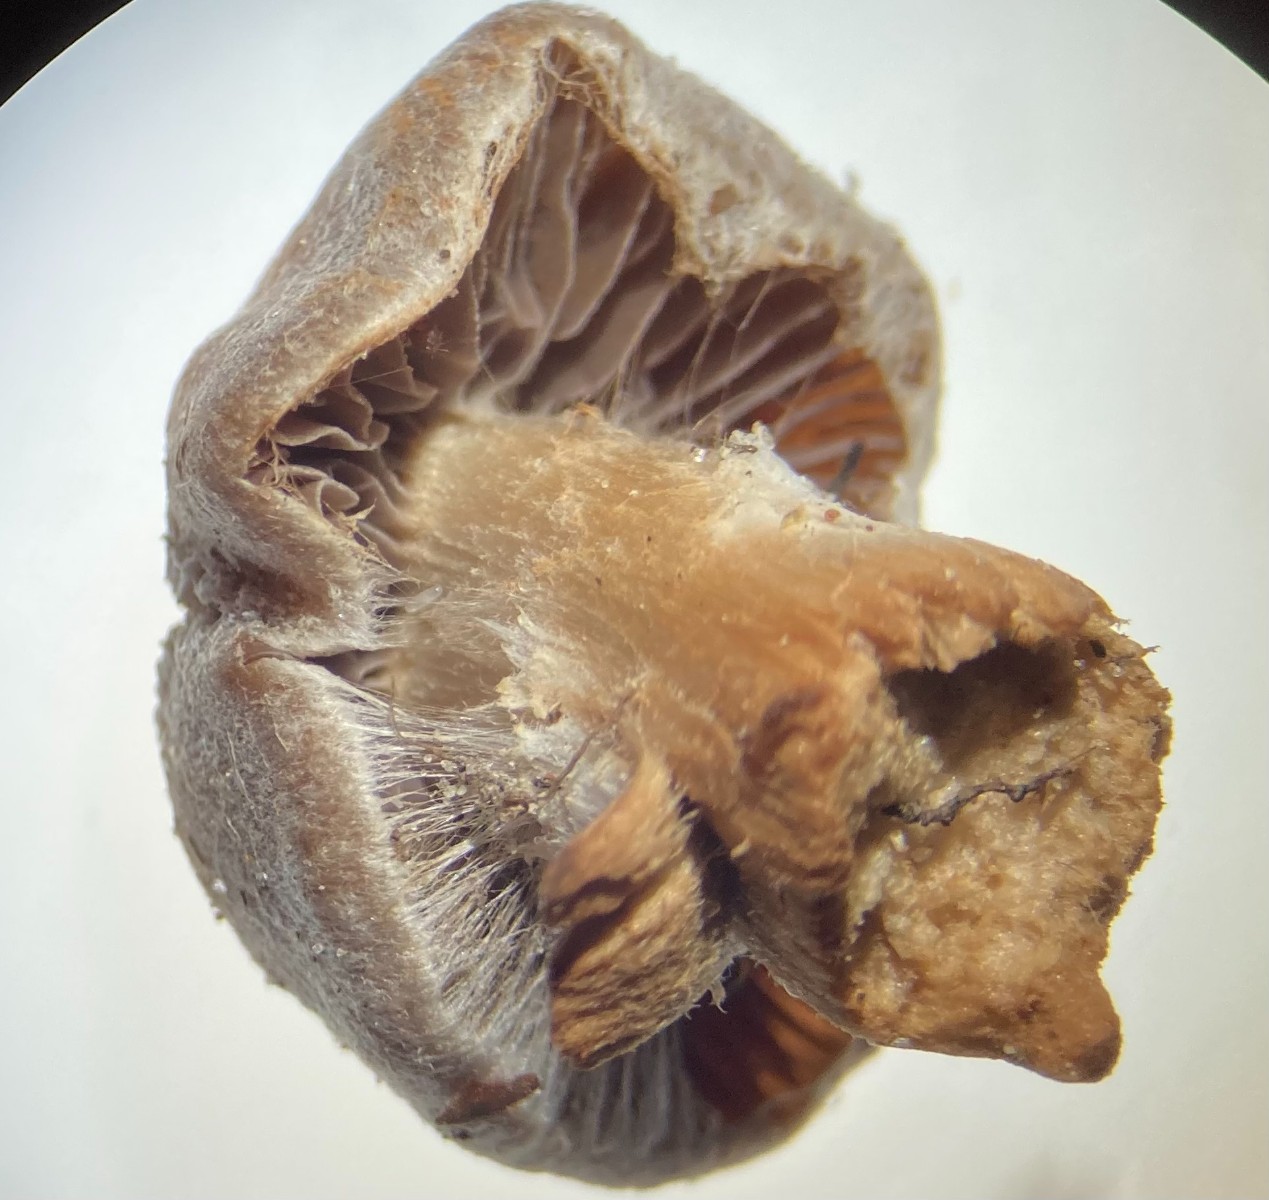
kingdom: Fungi
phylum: Basidiomycota
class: Agaricomycetes
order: Agaricales
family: Cortinariaceae
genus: Cortinarius
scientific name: Cortinarius
